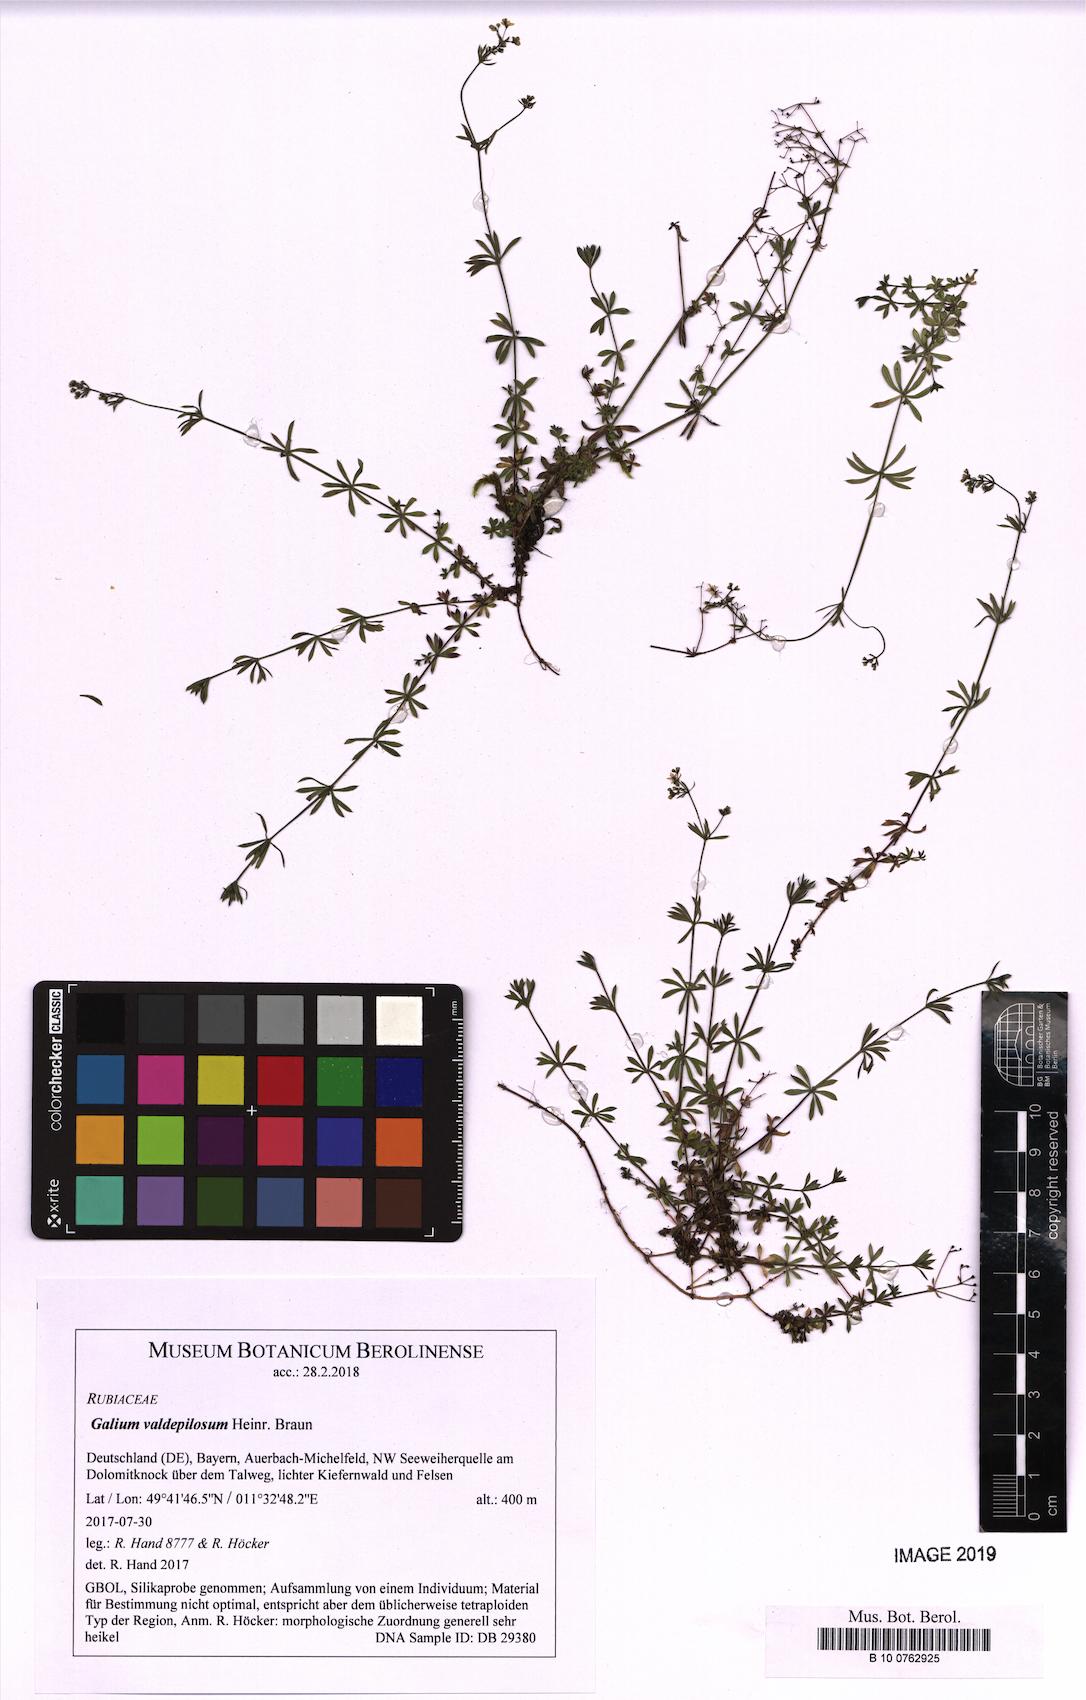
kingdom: Plantae
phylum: Tracheophyta
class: Magnoliopsida
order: Gentianales
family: Rubiaceae
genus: Galium
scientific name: Galium valdepilosum
